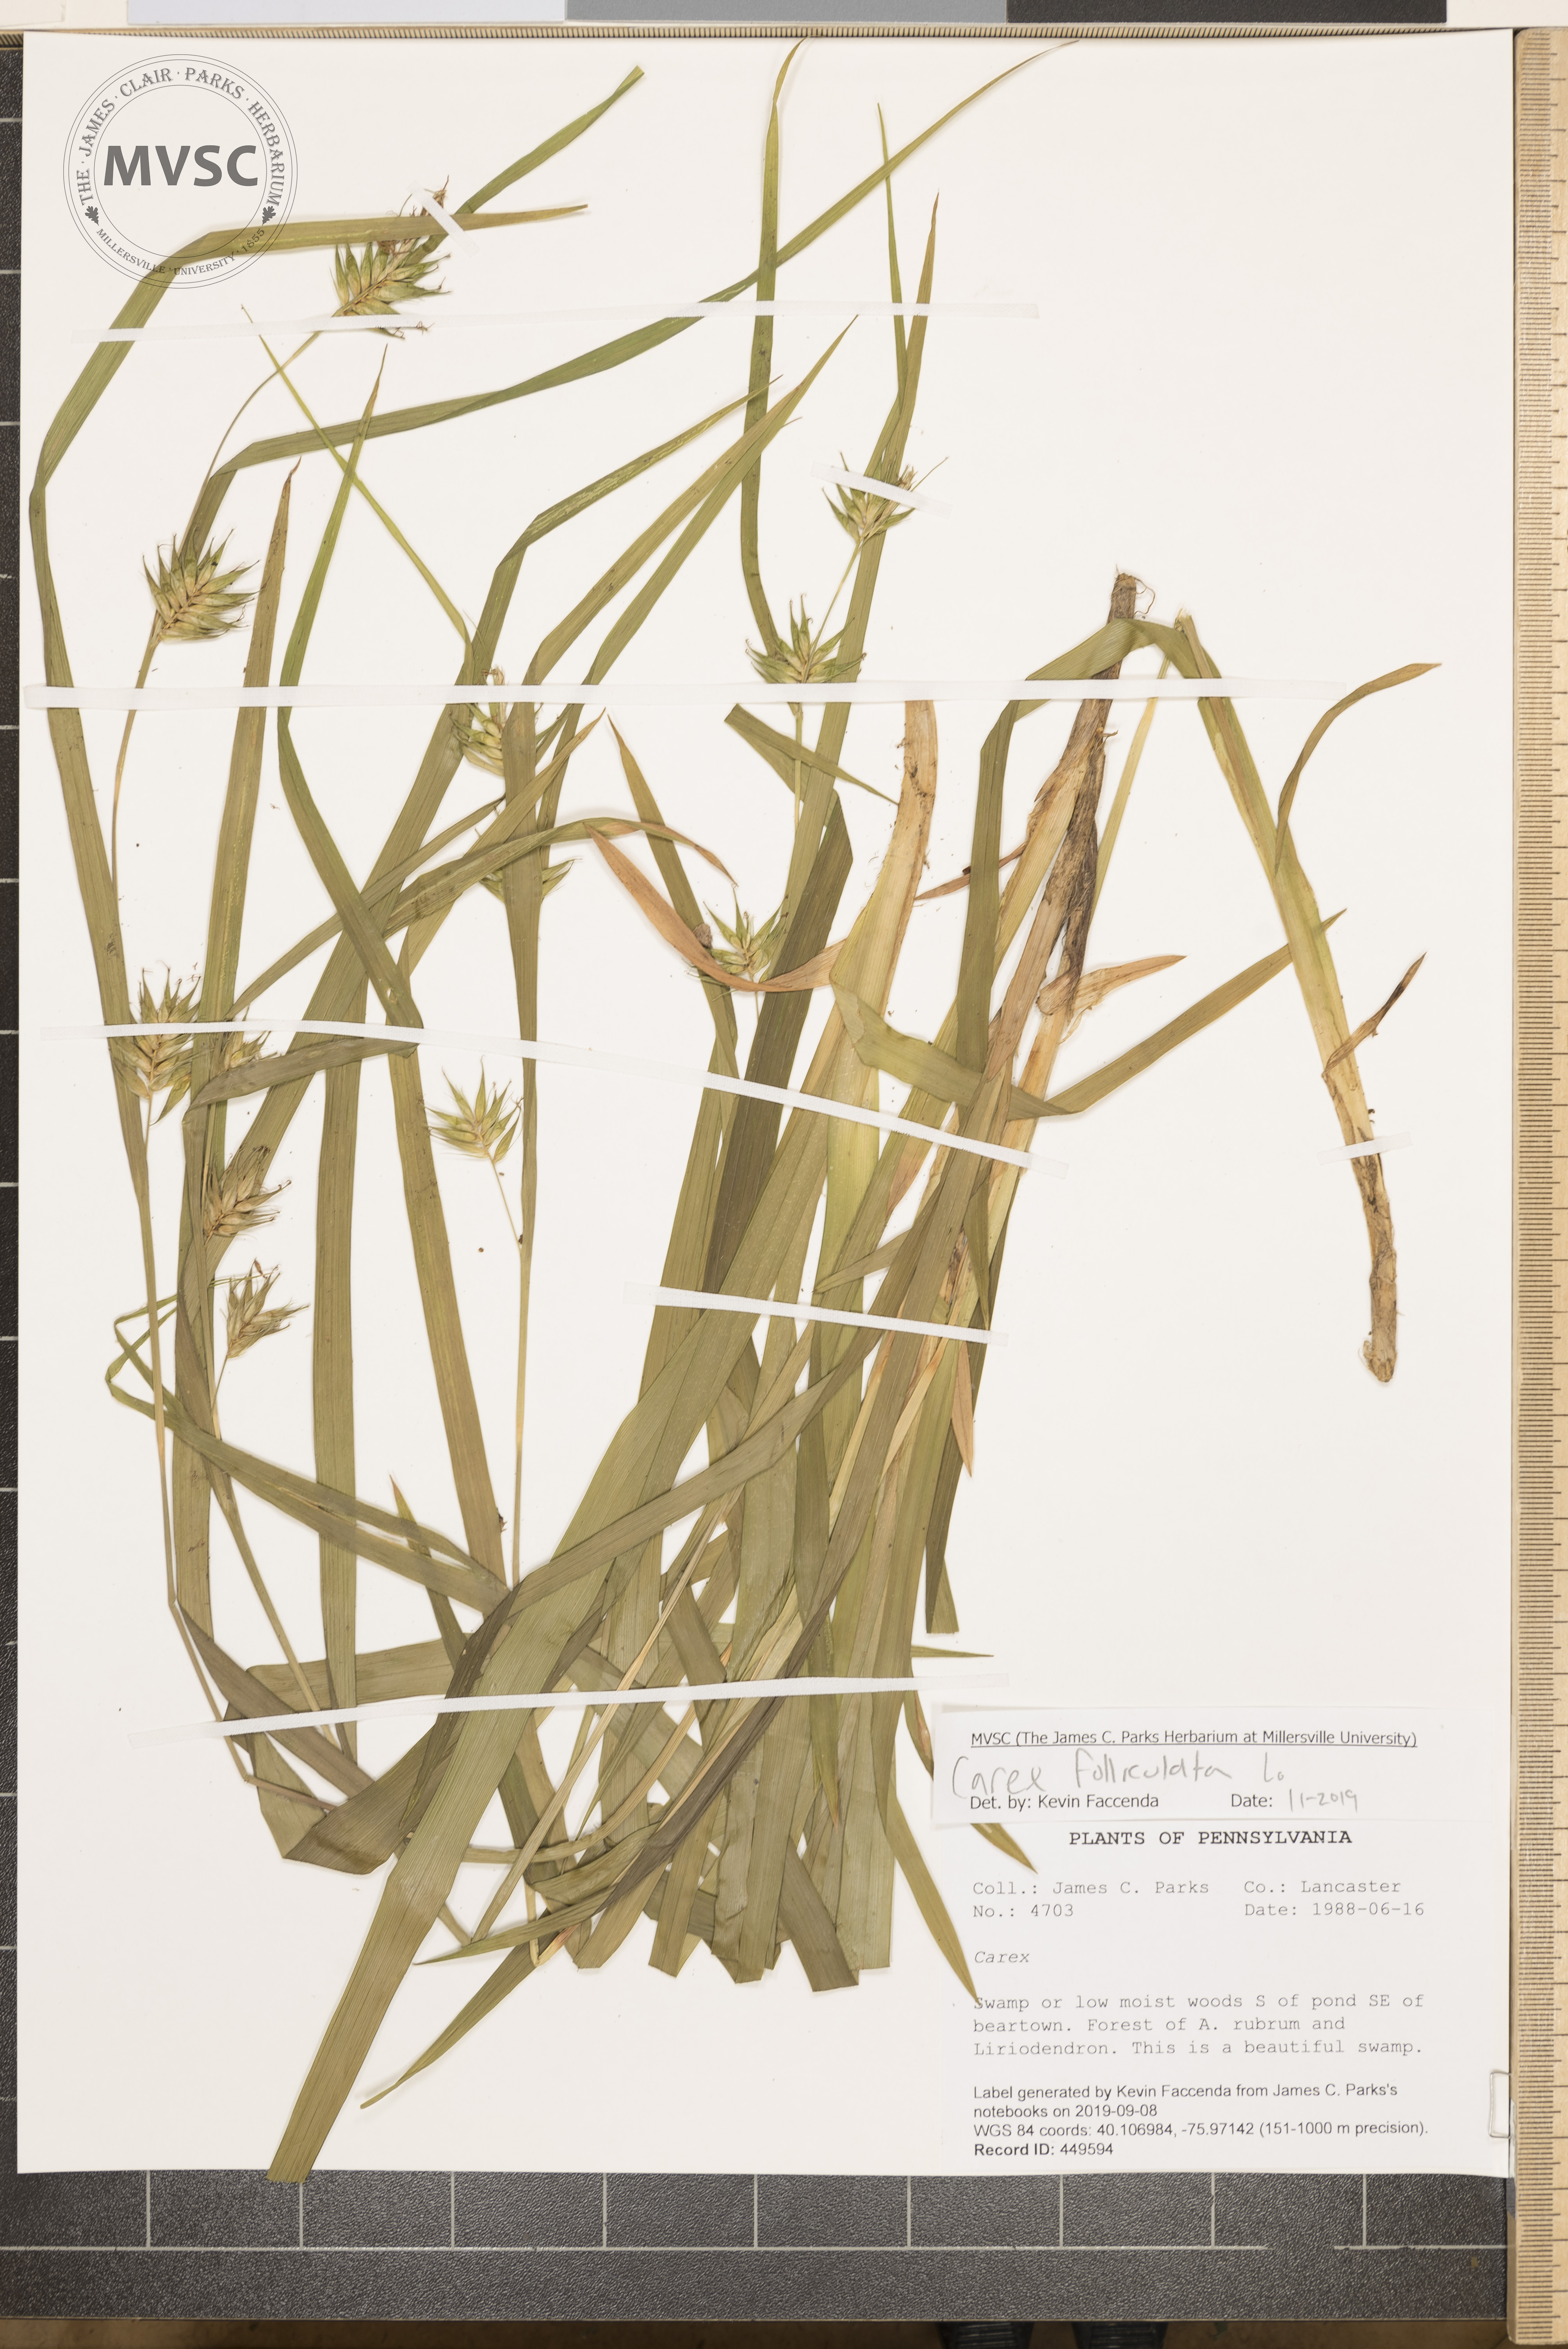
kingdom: Plantae
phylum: Tracheophyta
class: Liliopsida
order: Poales
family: Cyperaceae
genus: Carex
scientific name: Carex folliculata
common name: Northern long sedge
